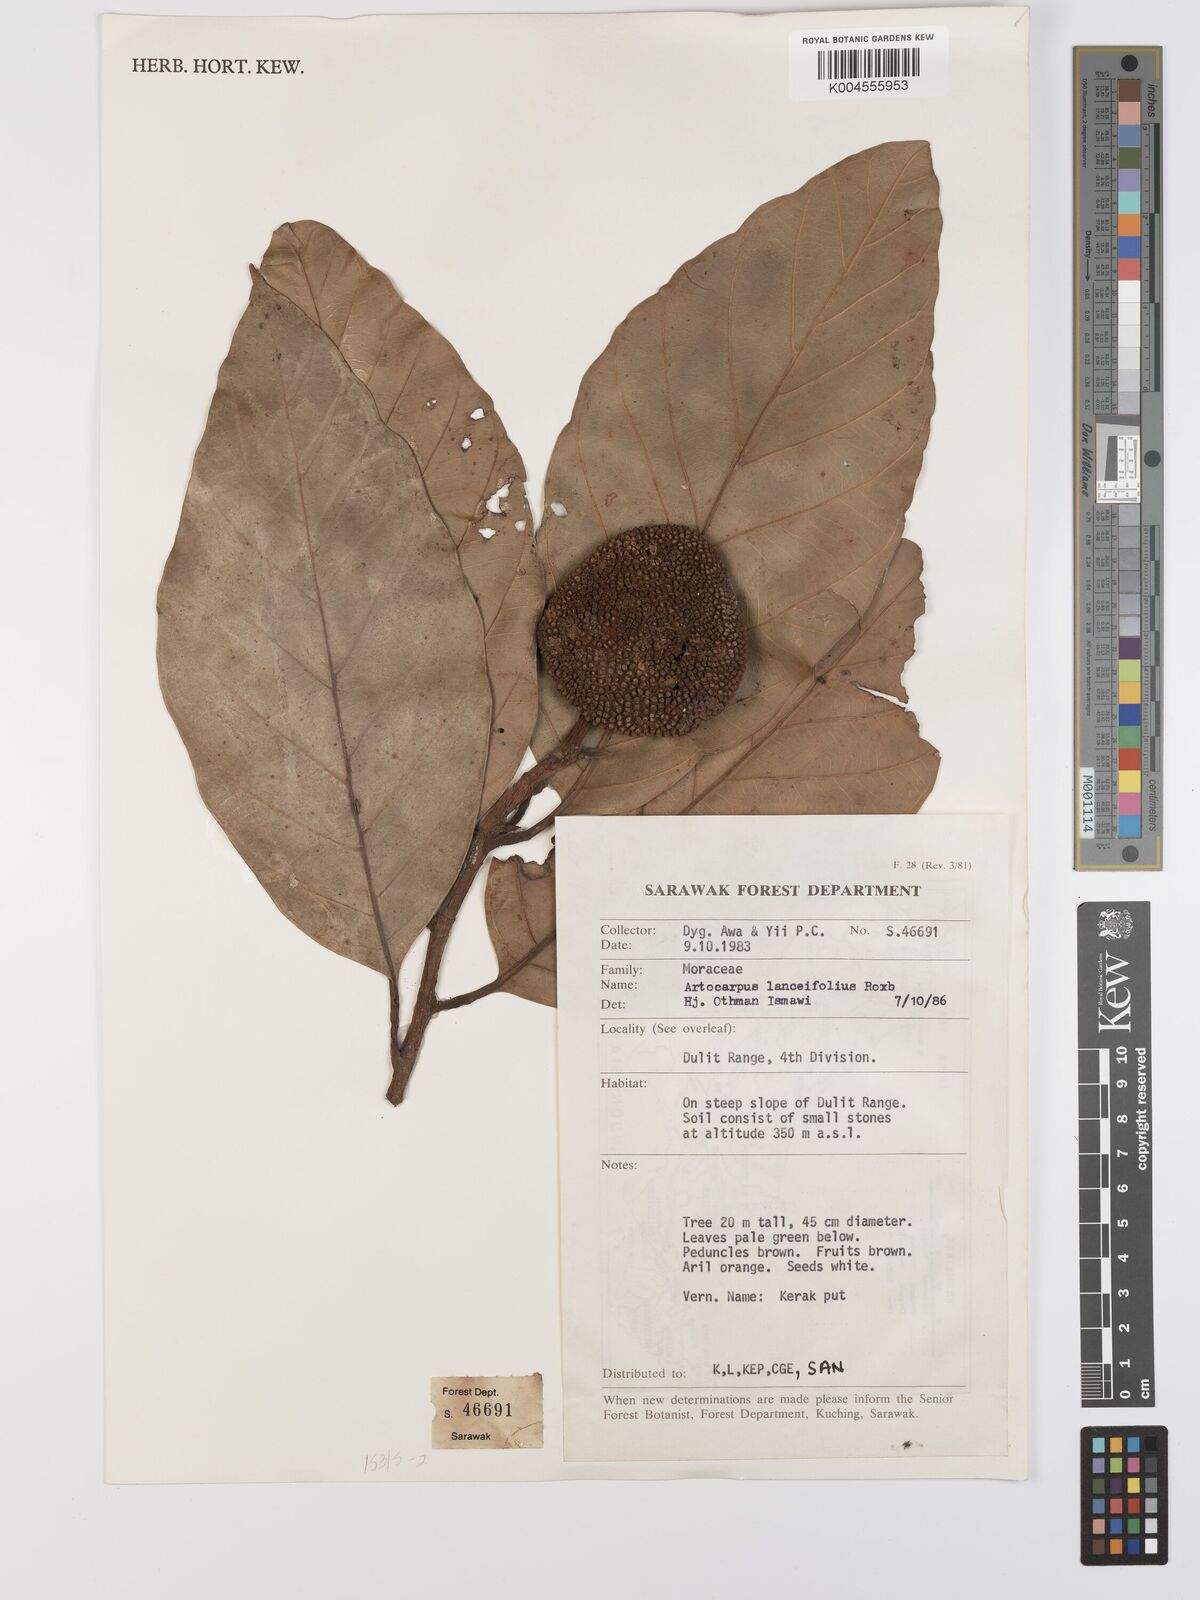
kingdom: Plantae
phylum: Tracheophyta
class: Magnoliopsida
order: Rosales
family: Moraceae
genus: Artocarpus
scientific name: Artocarpus lanceifolius
